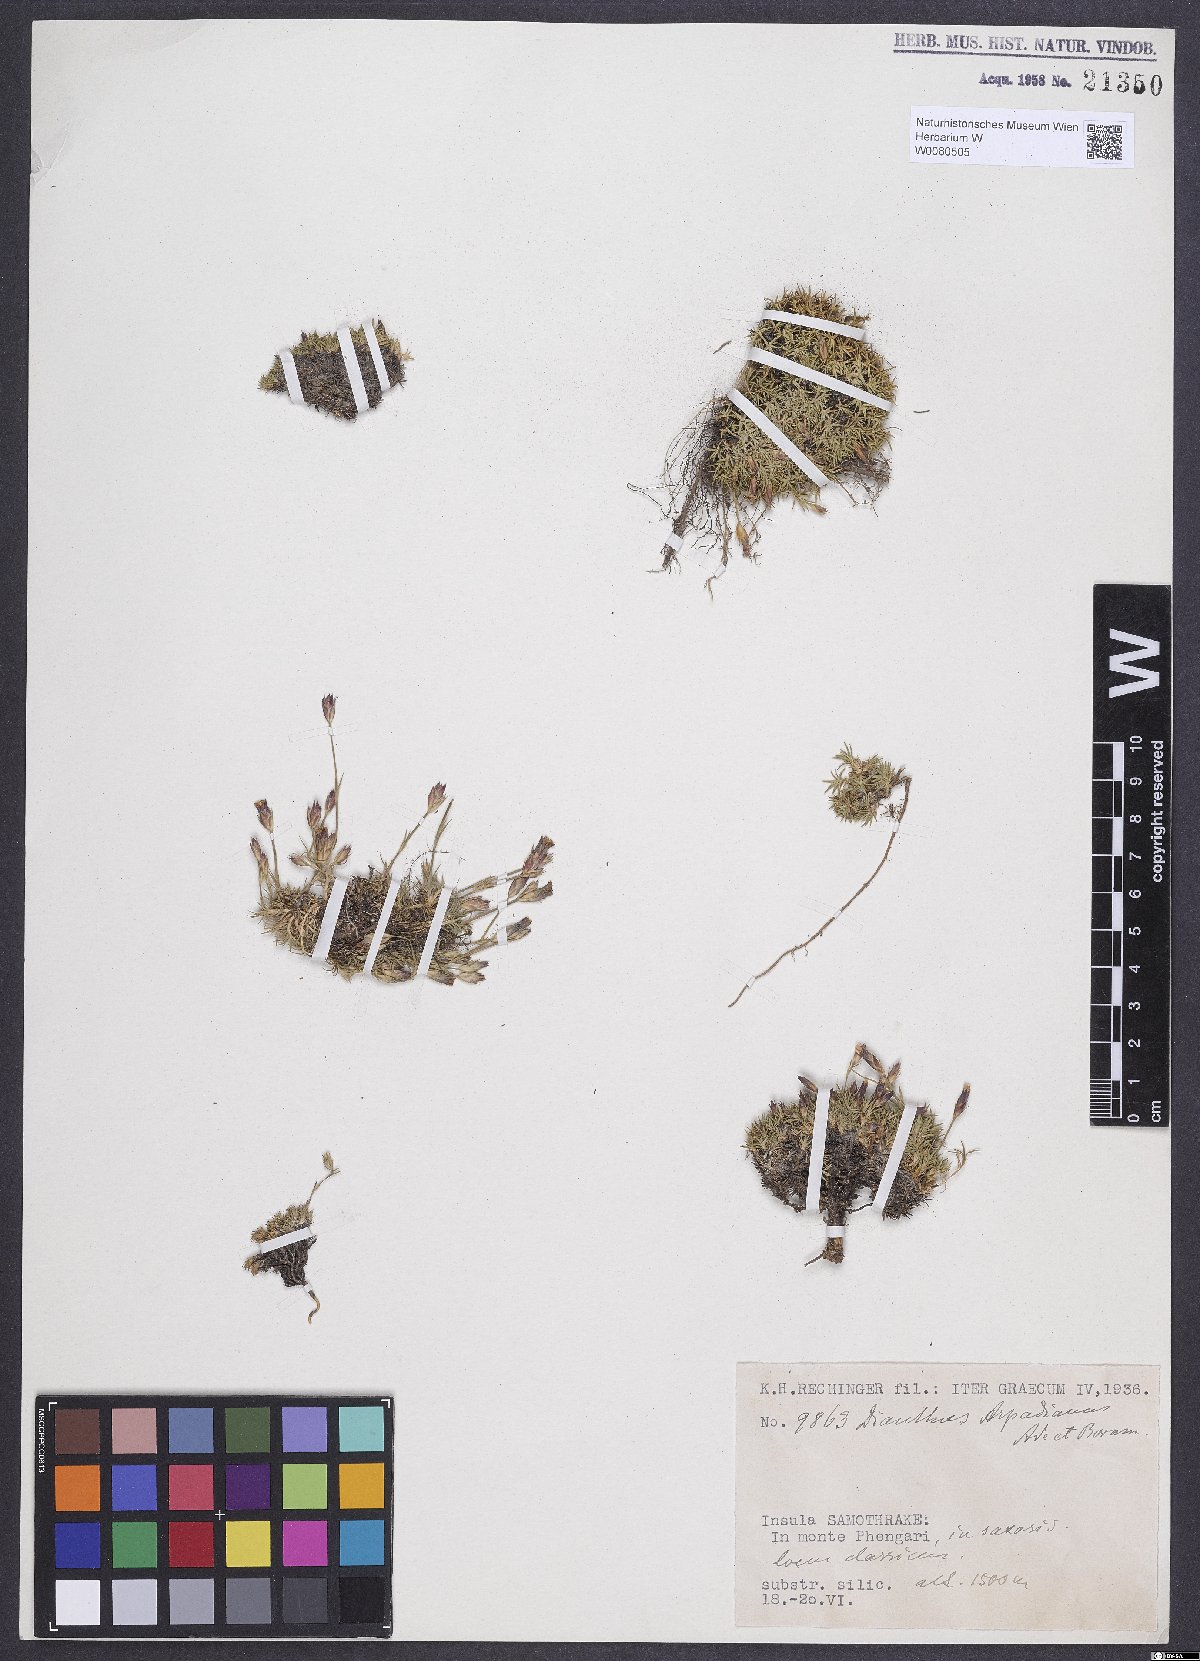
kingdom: Plantae
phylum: Tracheophyta
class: Magnoliopsida
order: Caryophyllales
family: Caryophyllaceae
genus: Dianthus
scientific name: Dianthus arpadianus
